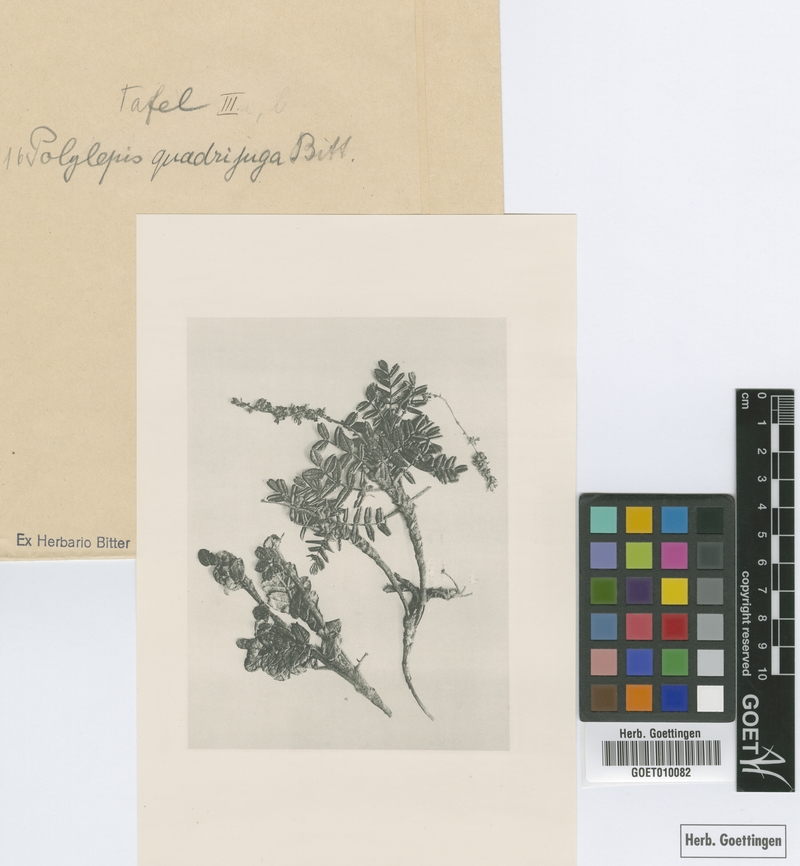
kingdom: Plantae
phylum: Tracheophyta
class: Magnoliopsida
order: Rosales
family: Rosaceae
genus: Polylepis
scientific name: Polylepis quadrijuga
